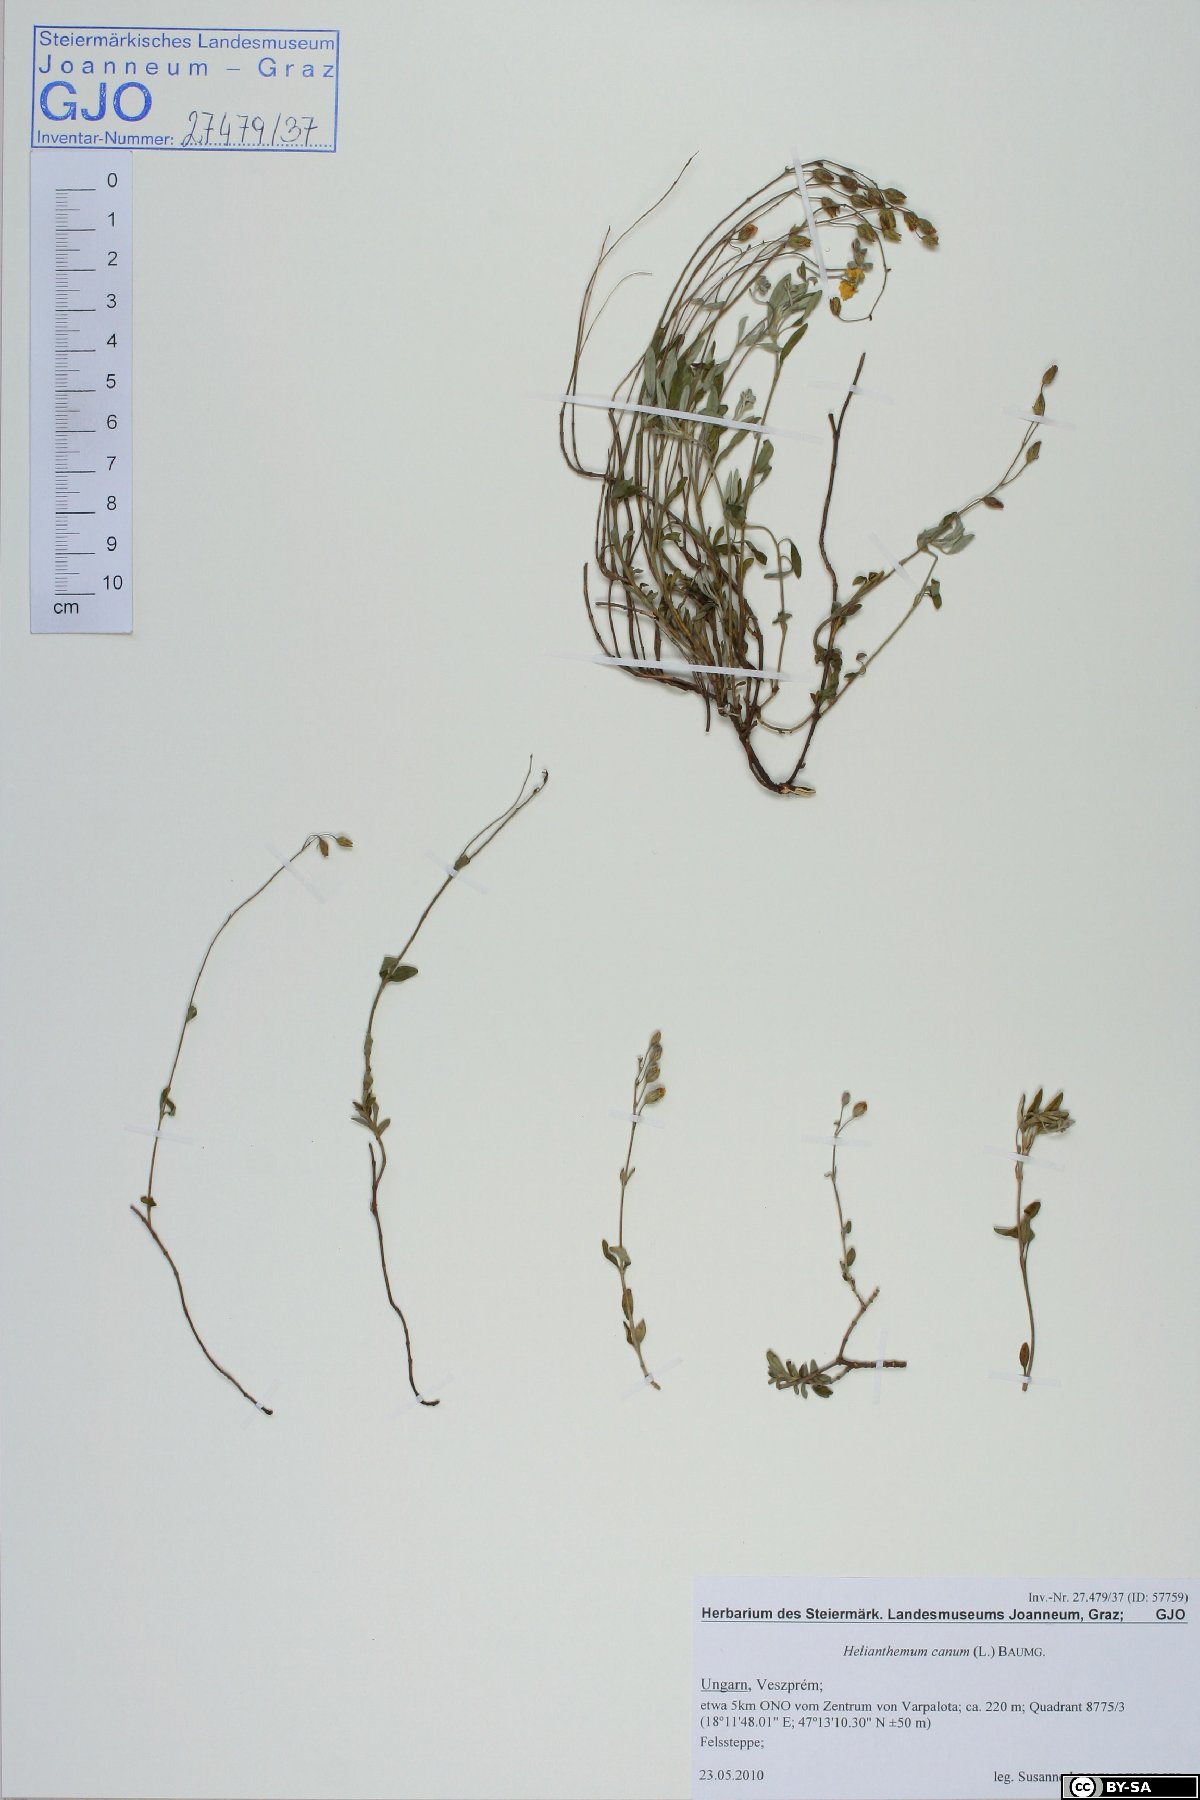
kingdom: Plantae
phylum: Tracheophyta
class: Magnoliopsida
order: Malvales
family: Cistaceae
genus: Helianthemum
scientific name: Helianthemum canum
